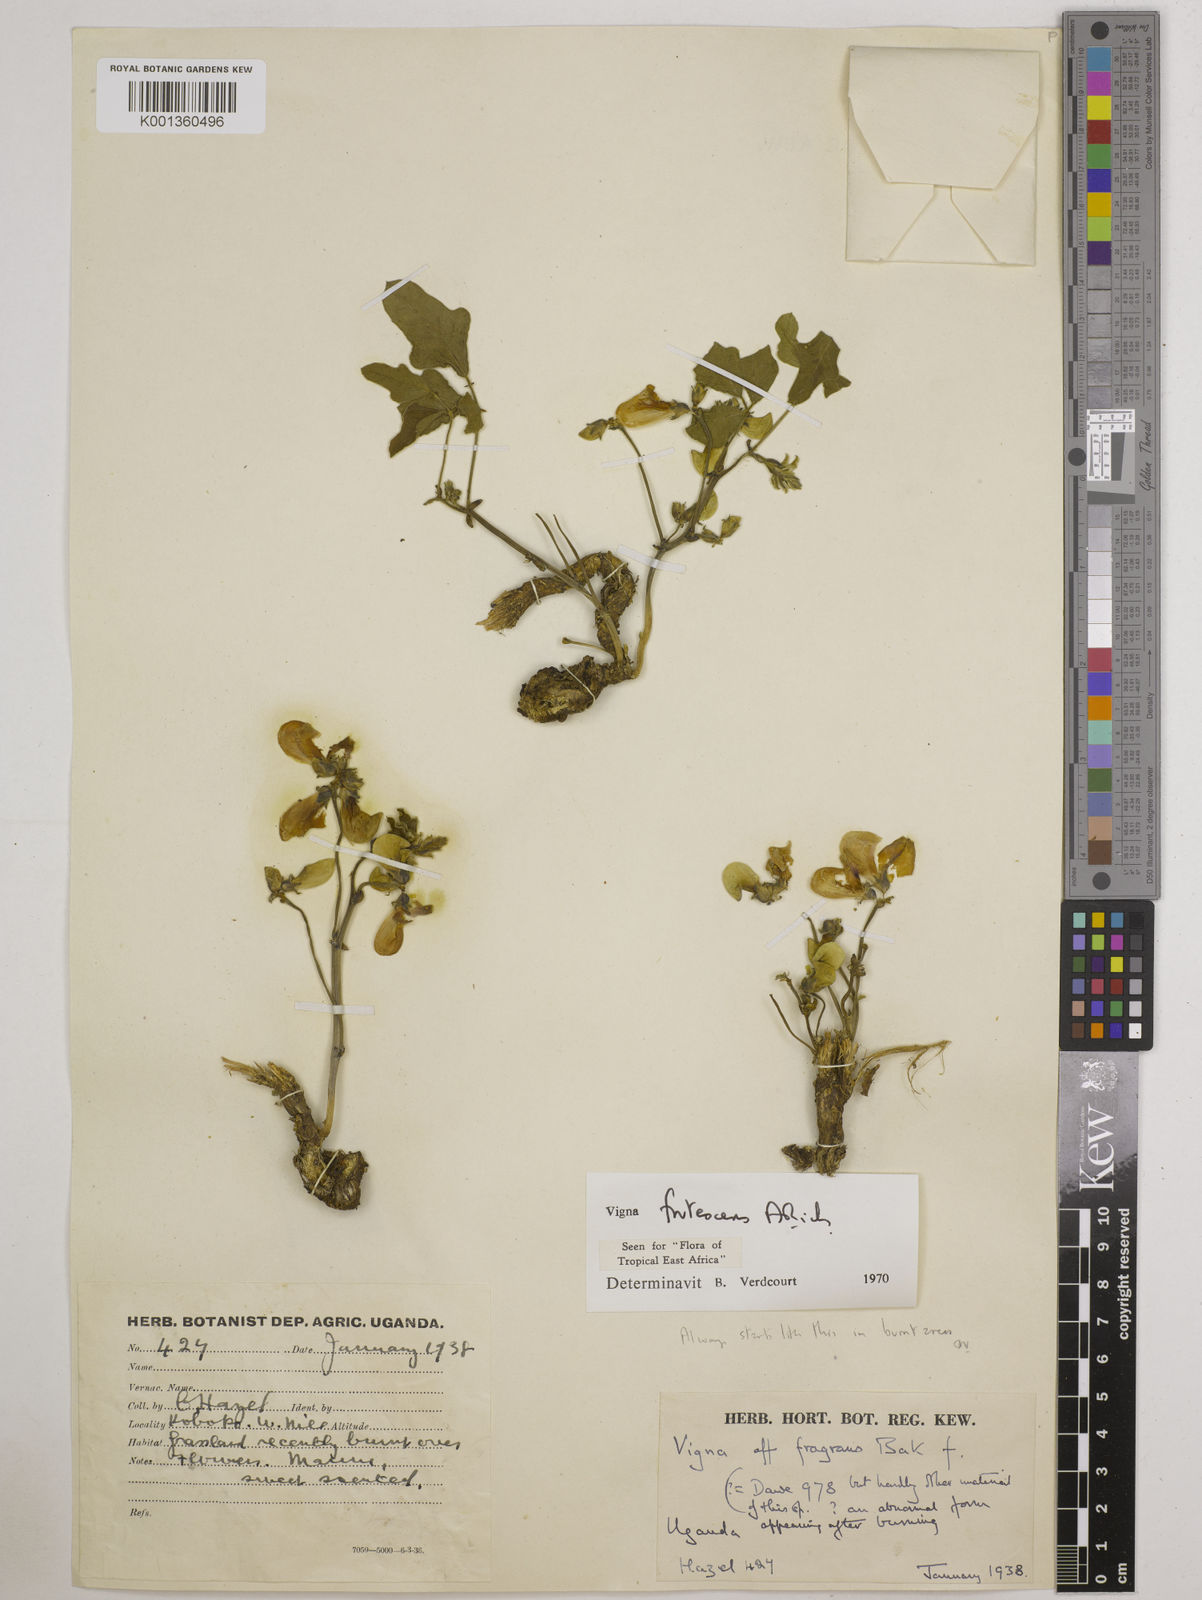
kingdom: Plantae
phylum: Tracheophyta
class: Magnoliopsida
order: Fabales
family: Fabaceae
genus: Vigna
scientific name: Vigna frutescens
